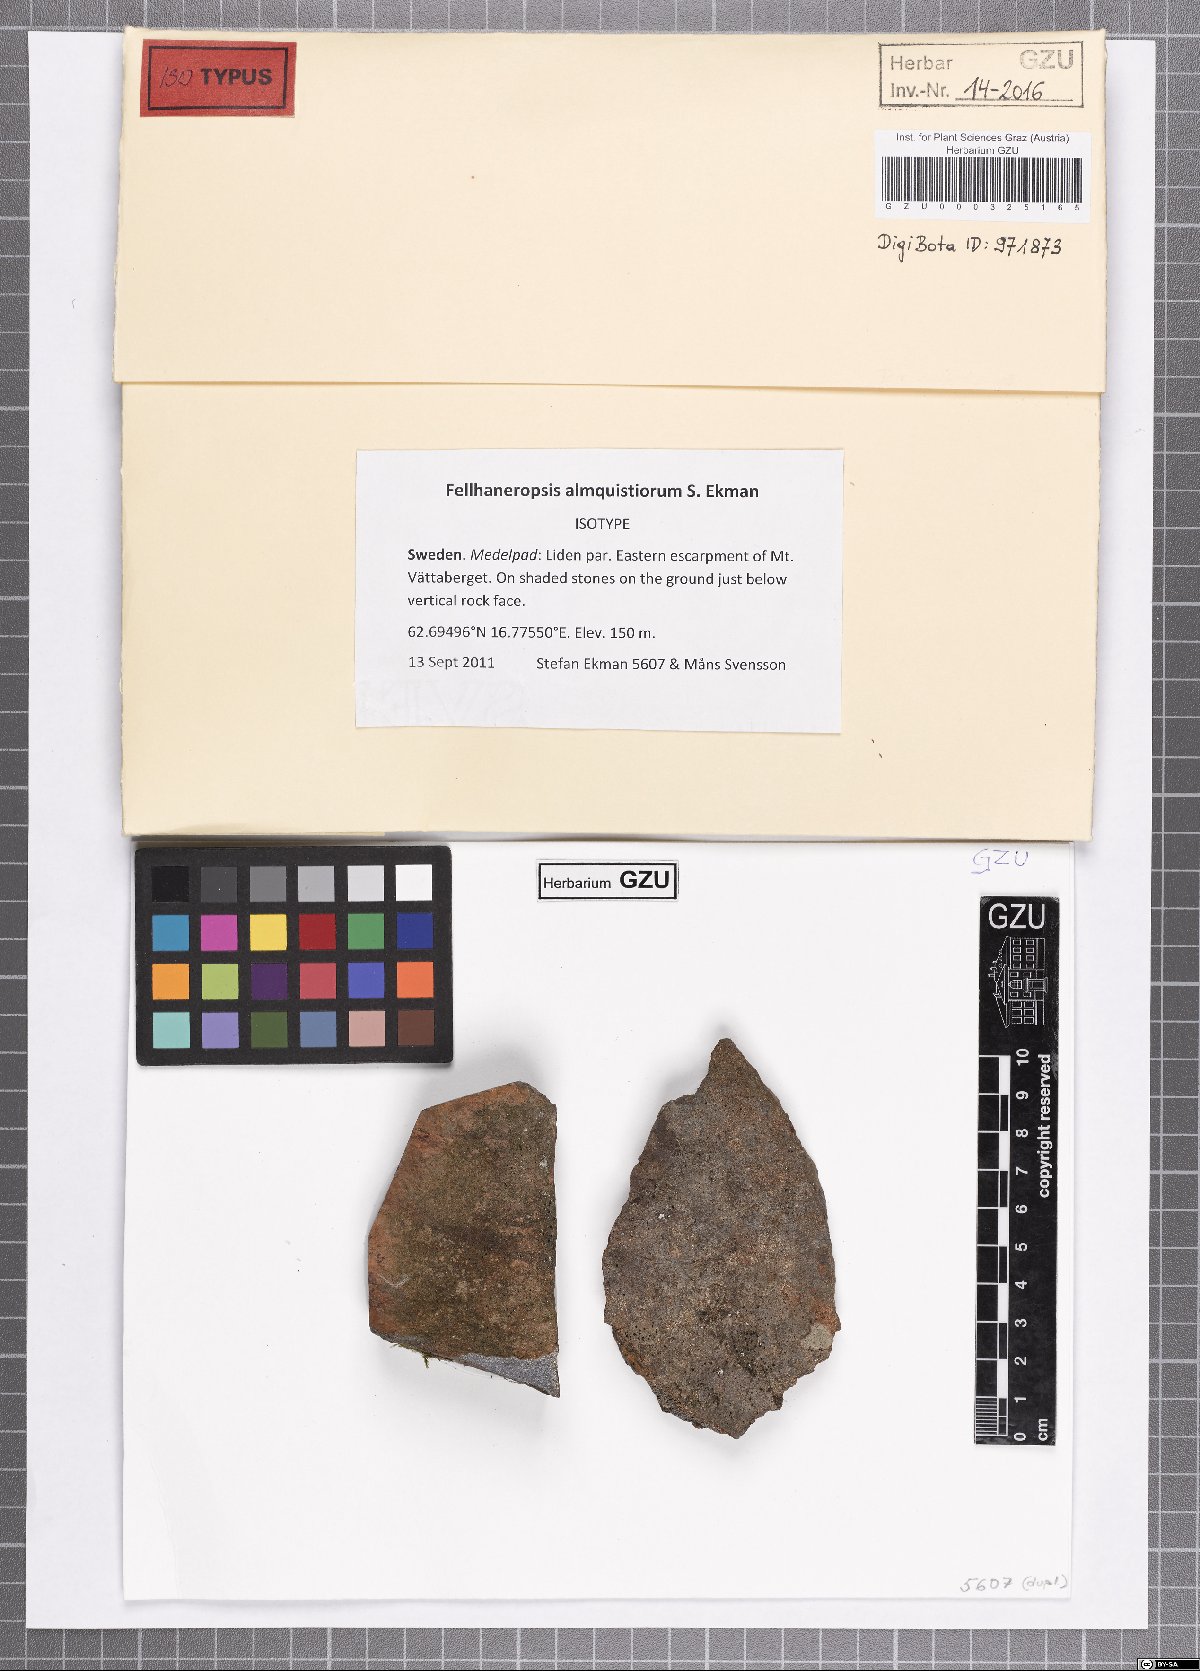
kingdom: Fungi
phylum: Ascomycota
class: Lecanoromycetes
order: Lecanorales
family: Byssolomataceae
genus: Fellhaneropsis
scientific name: Fellhaneropsis almquistiorum
